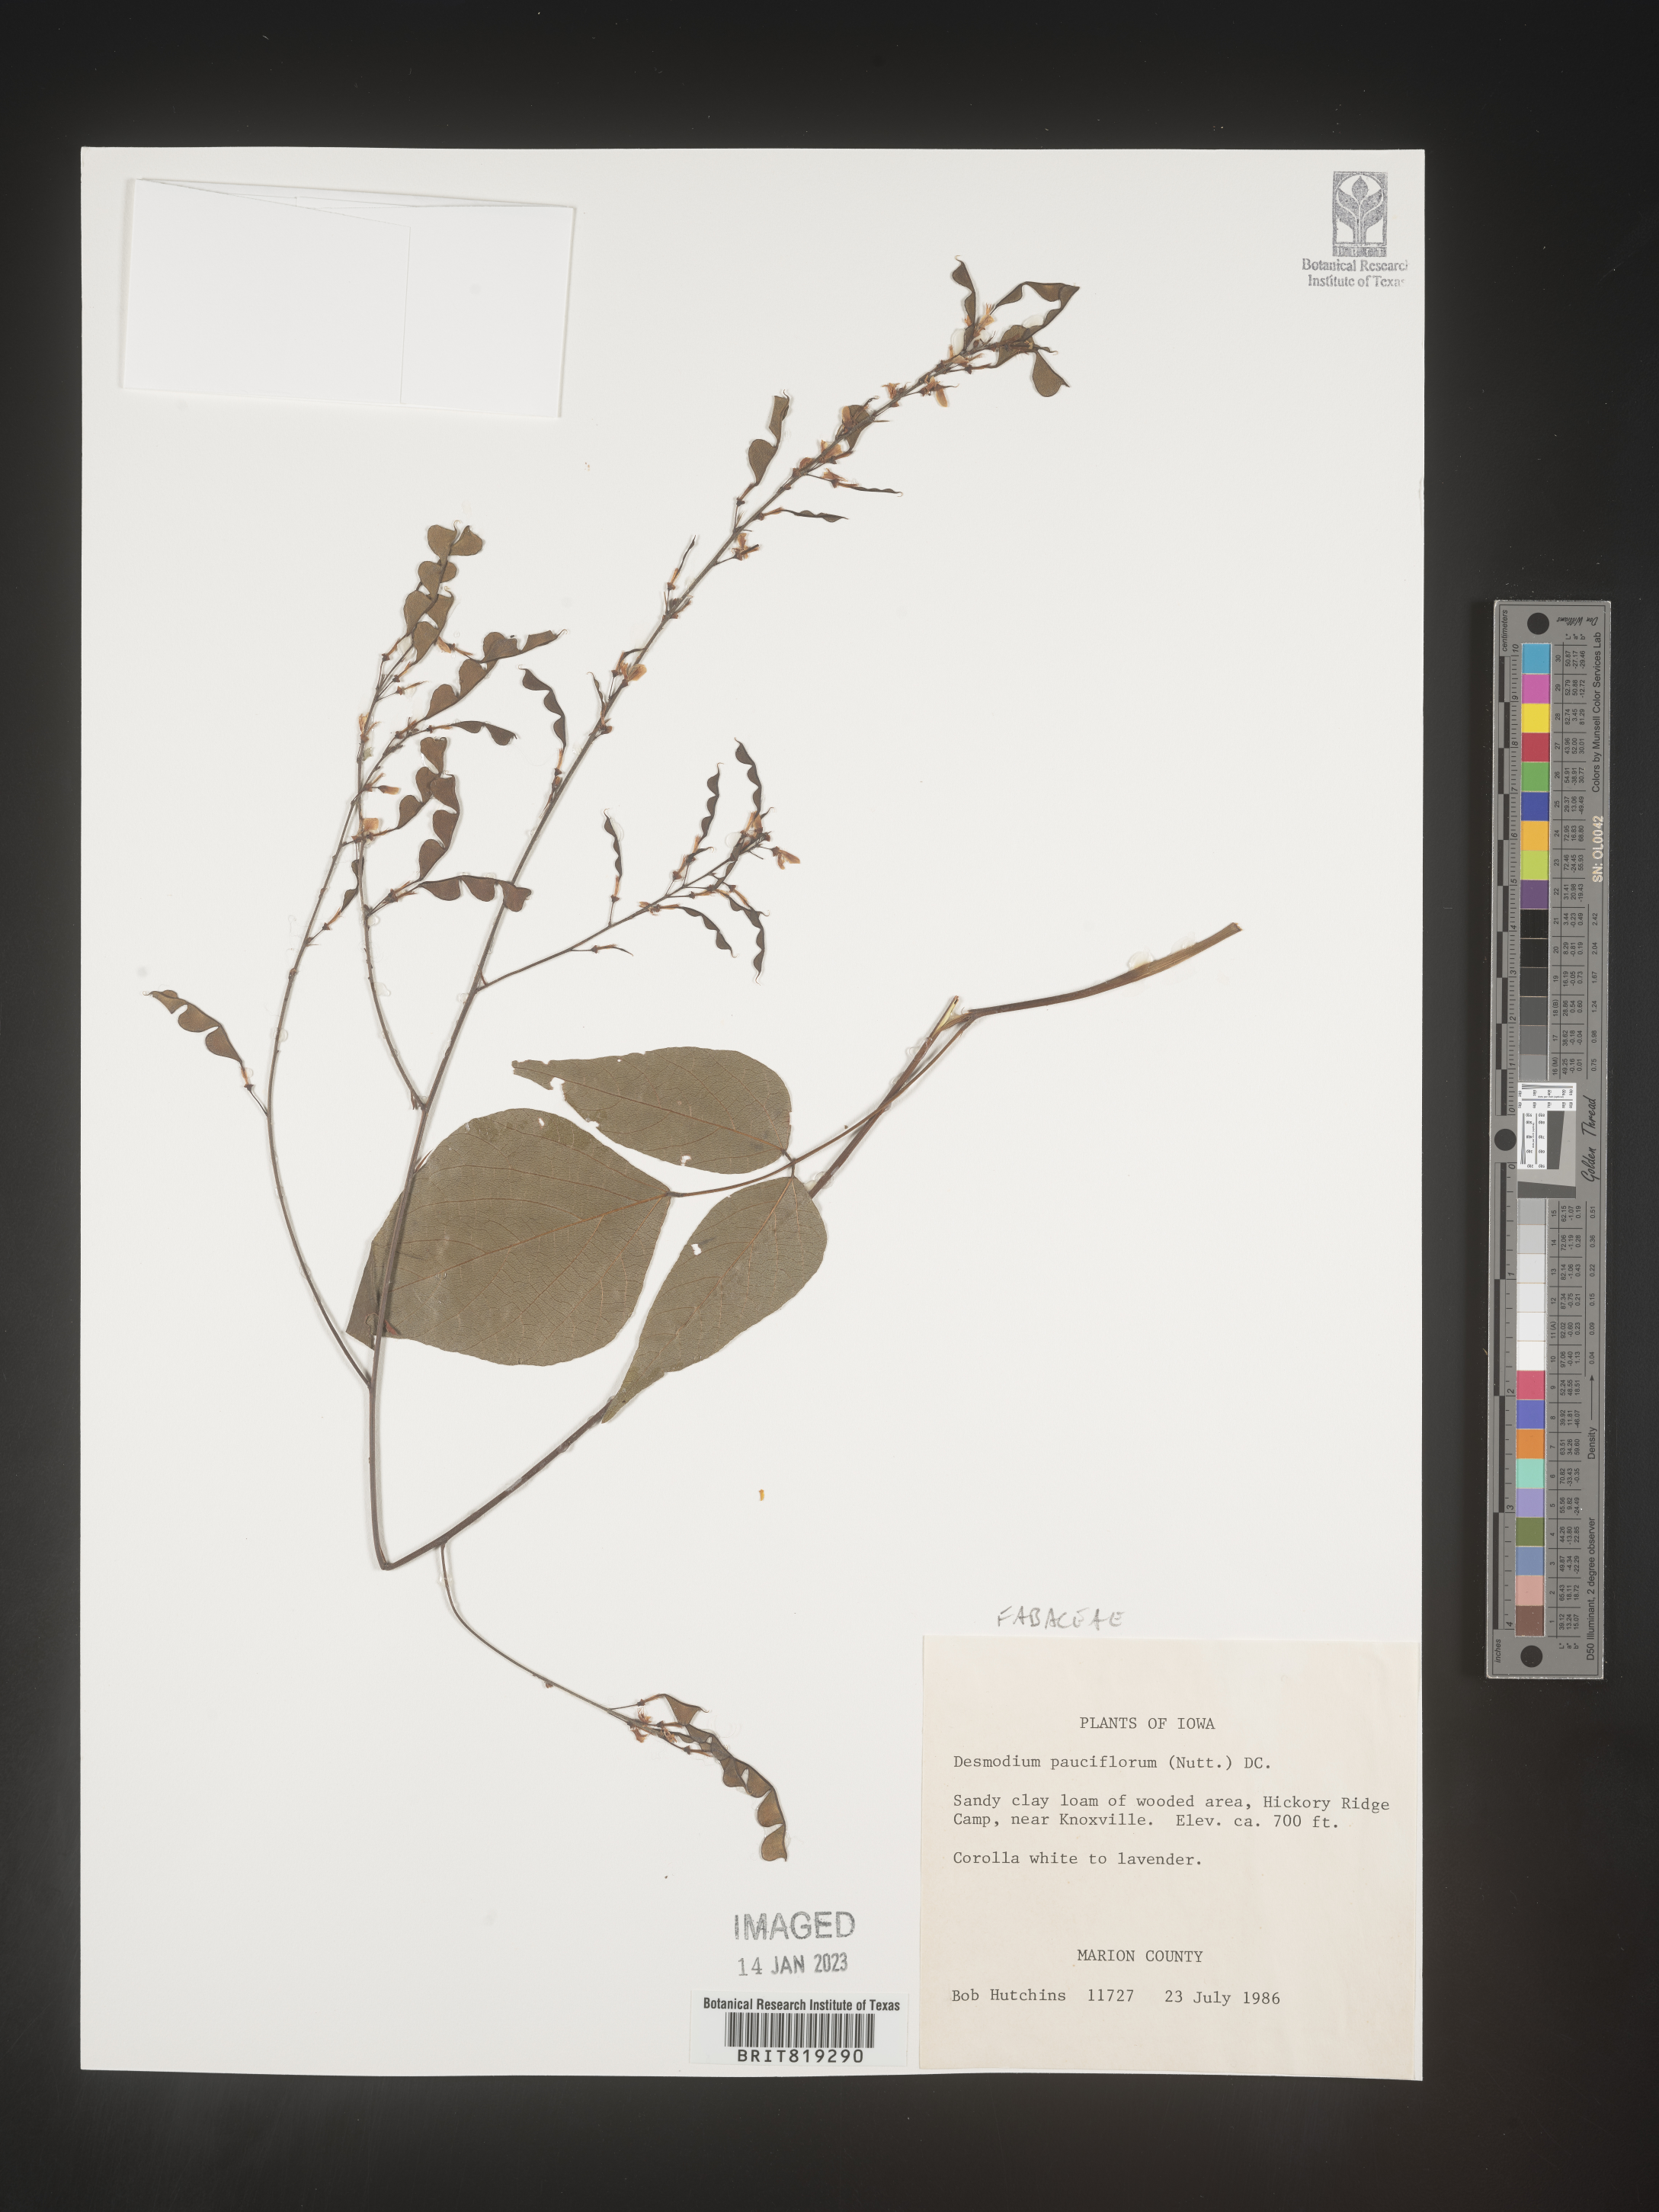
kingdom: Plantae
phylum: Tracheophyta
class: Magnoliopsida
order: Fabales
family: Fabaceae
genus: Hylodesmum
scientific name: Hylodesmum pauciflorum
